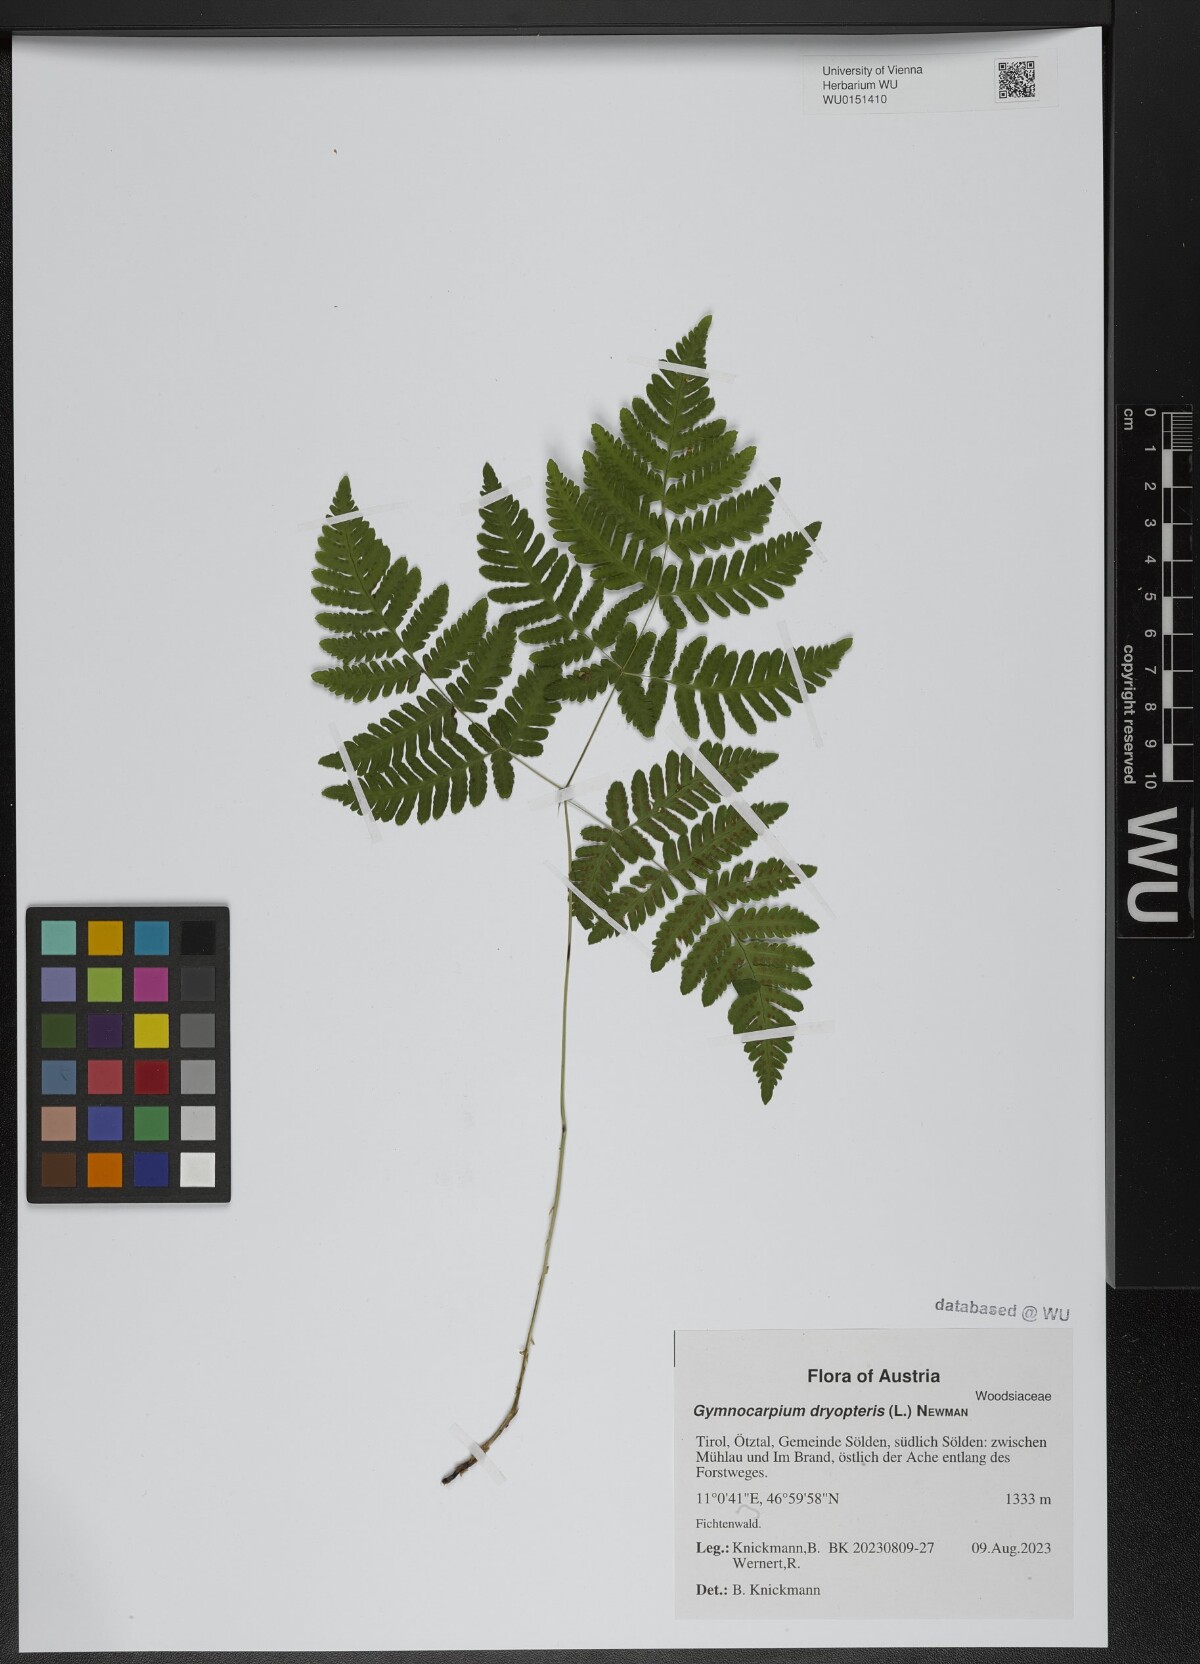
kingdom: Plantae
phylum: Tracheophyta
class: Polypodiopsida
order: Polypodiales
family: Cystopteridaceae
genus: Gymnocarpium
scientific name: Gymnocarpium dryopteris
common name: Oak fern
